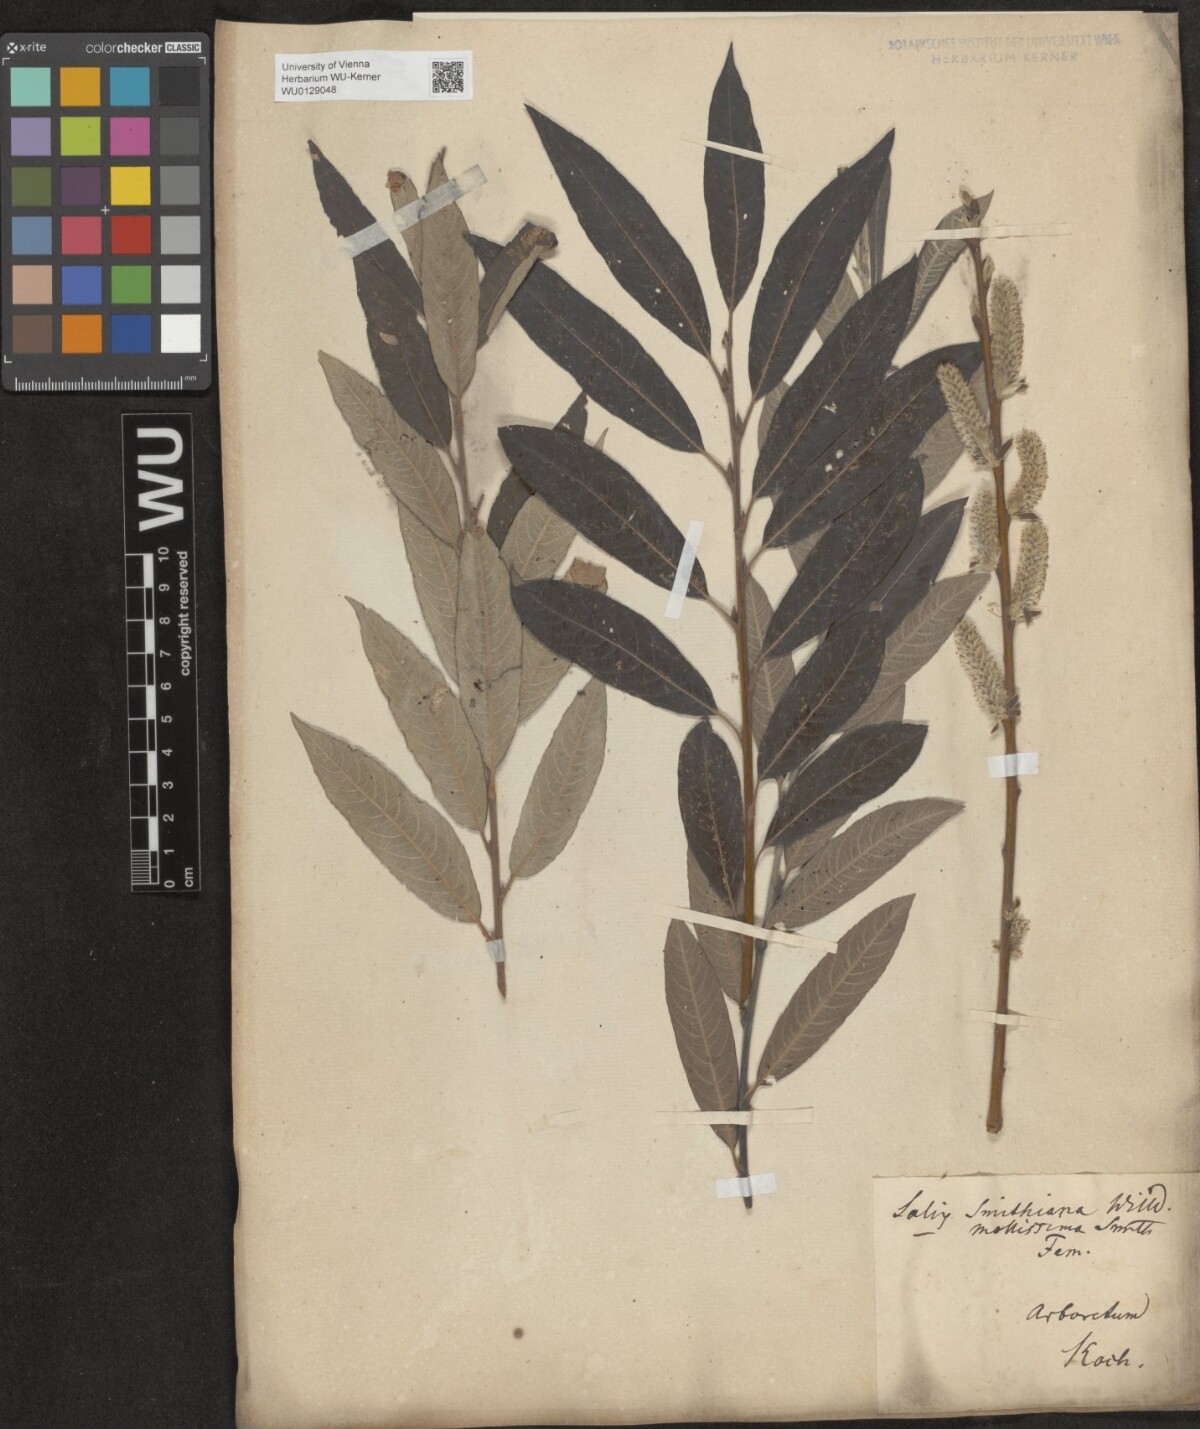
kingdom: Plantae
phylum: Tracheophyta
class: Magnoliopsida
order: Malpighiales
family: Salicaceae
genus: Salix
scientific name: Salix
